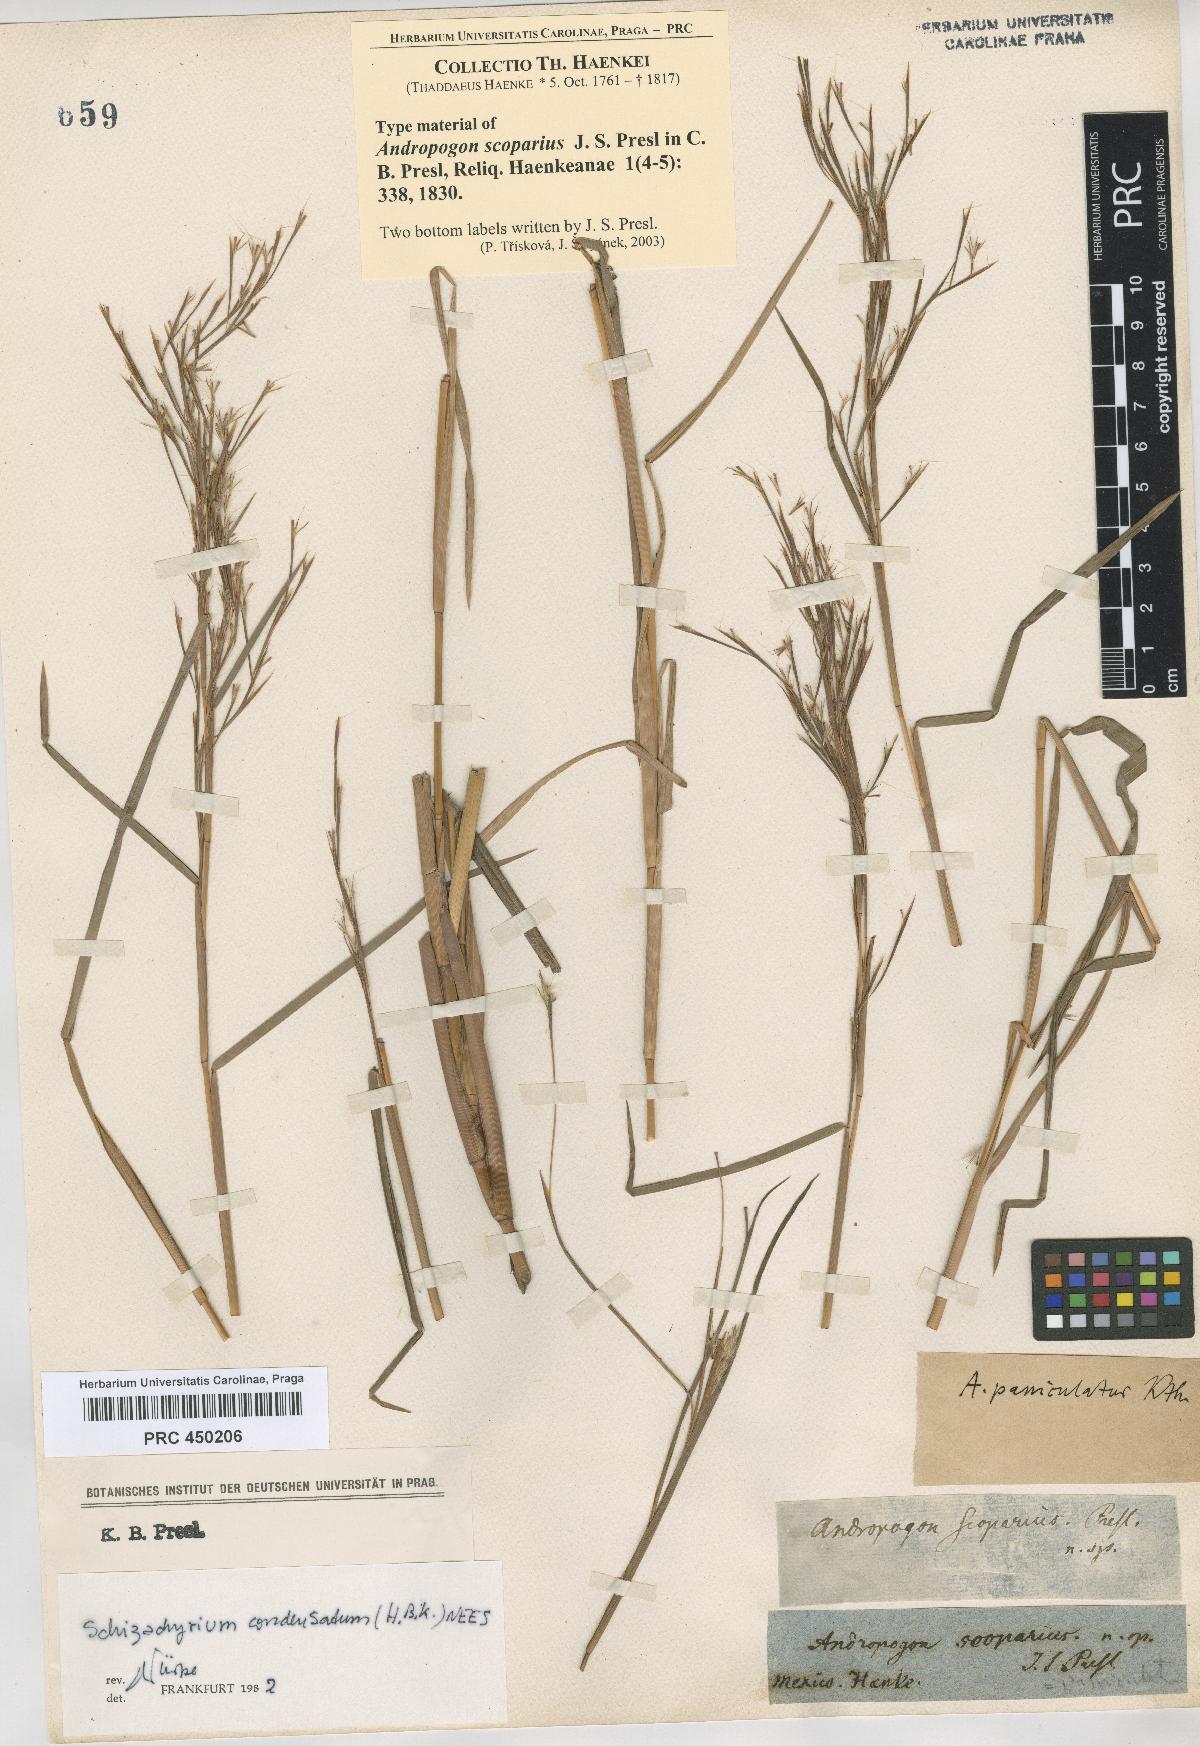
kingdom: Plantae
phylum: Tracheophyta
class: Liliopsida
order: Poales
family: Poaceae
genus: Schizachyrium
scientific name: Schizachyrium microstachyum
